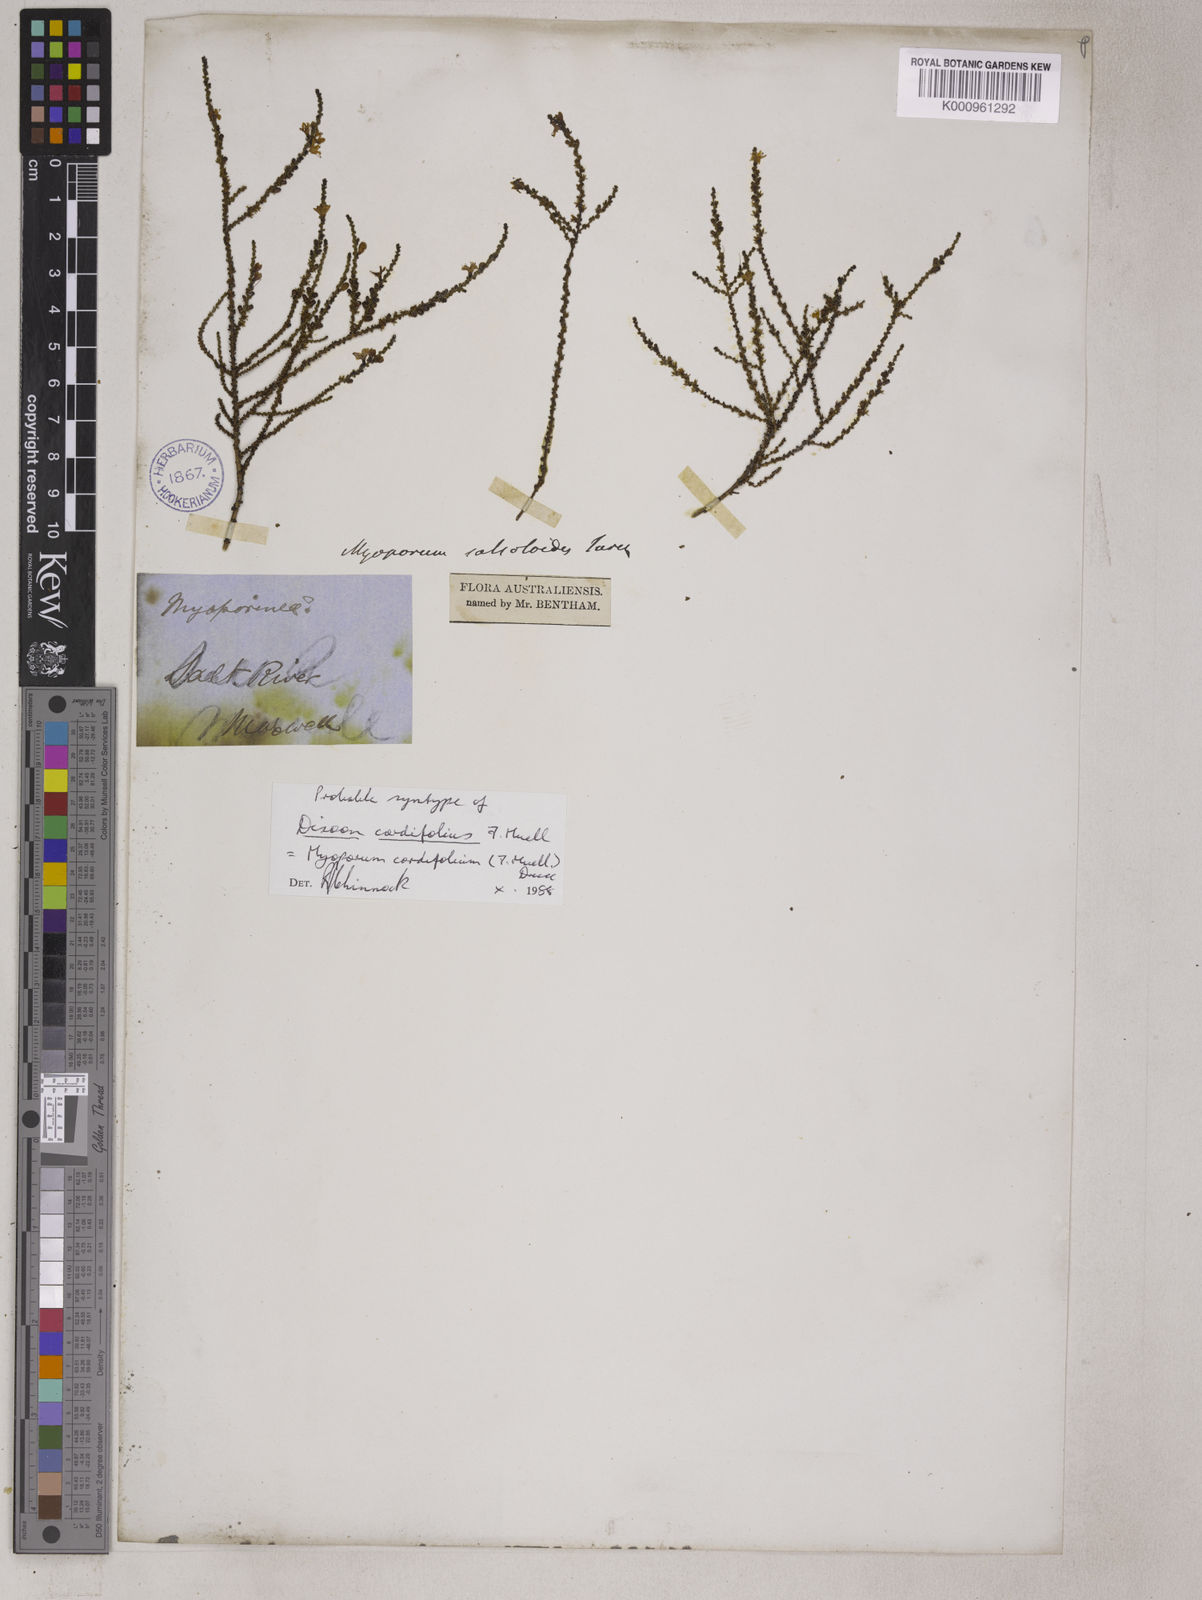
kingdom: Plantae
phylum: Tracheophyta
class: Magnoliopsida
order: Lamiales
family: Scrophulariaceae
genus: Myoporum
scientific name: Myoporum cordifolium
